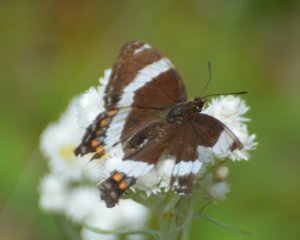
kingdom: Animalia
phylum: Arthropoda
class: Insecta
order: Lepidoptera
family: Nymphalidae
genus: Limenitis
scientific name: Limenitis arthemis
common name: Red-spotted Admiral
